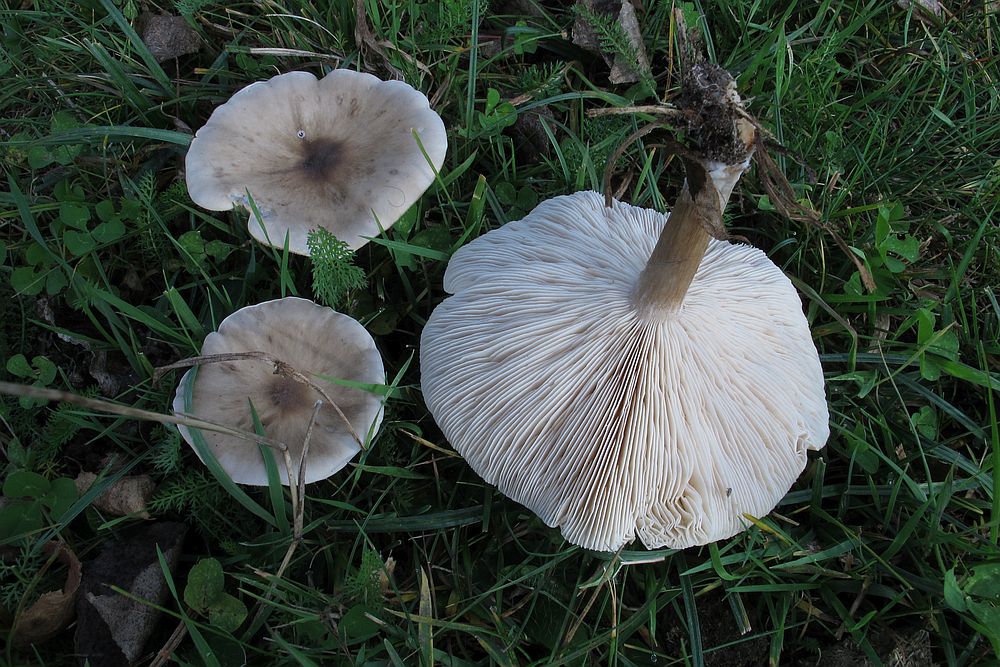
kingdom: Fungi
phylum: Basidiomycota
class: Agaricomycetes
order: Agaricales
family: Tricholomataceae
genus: Melanoleuca
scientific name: Melanoleuca grammopodia
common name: stribestokket munkehat
